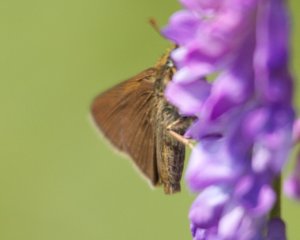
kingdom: Animalia
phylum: Arthropoda
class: Insecta
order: Lepidoptera
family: Hesperiidae
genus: Euphyes
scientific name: Euphyes vestris
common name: Dun Skipper
